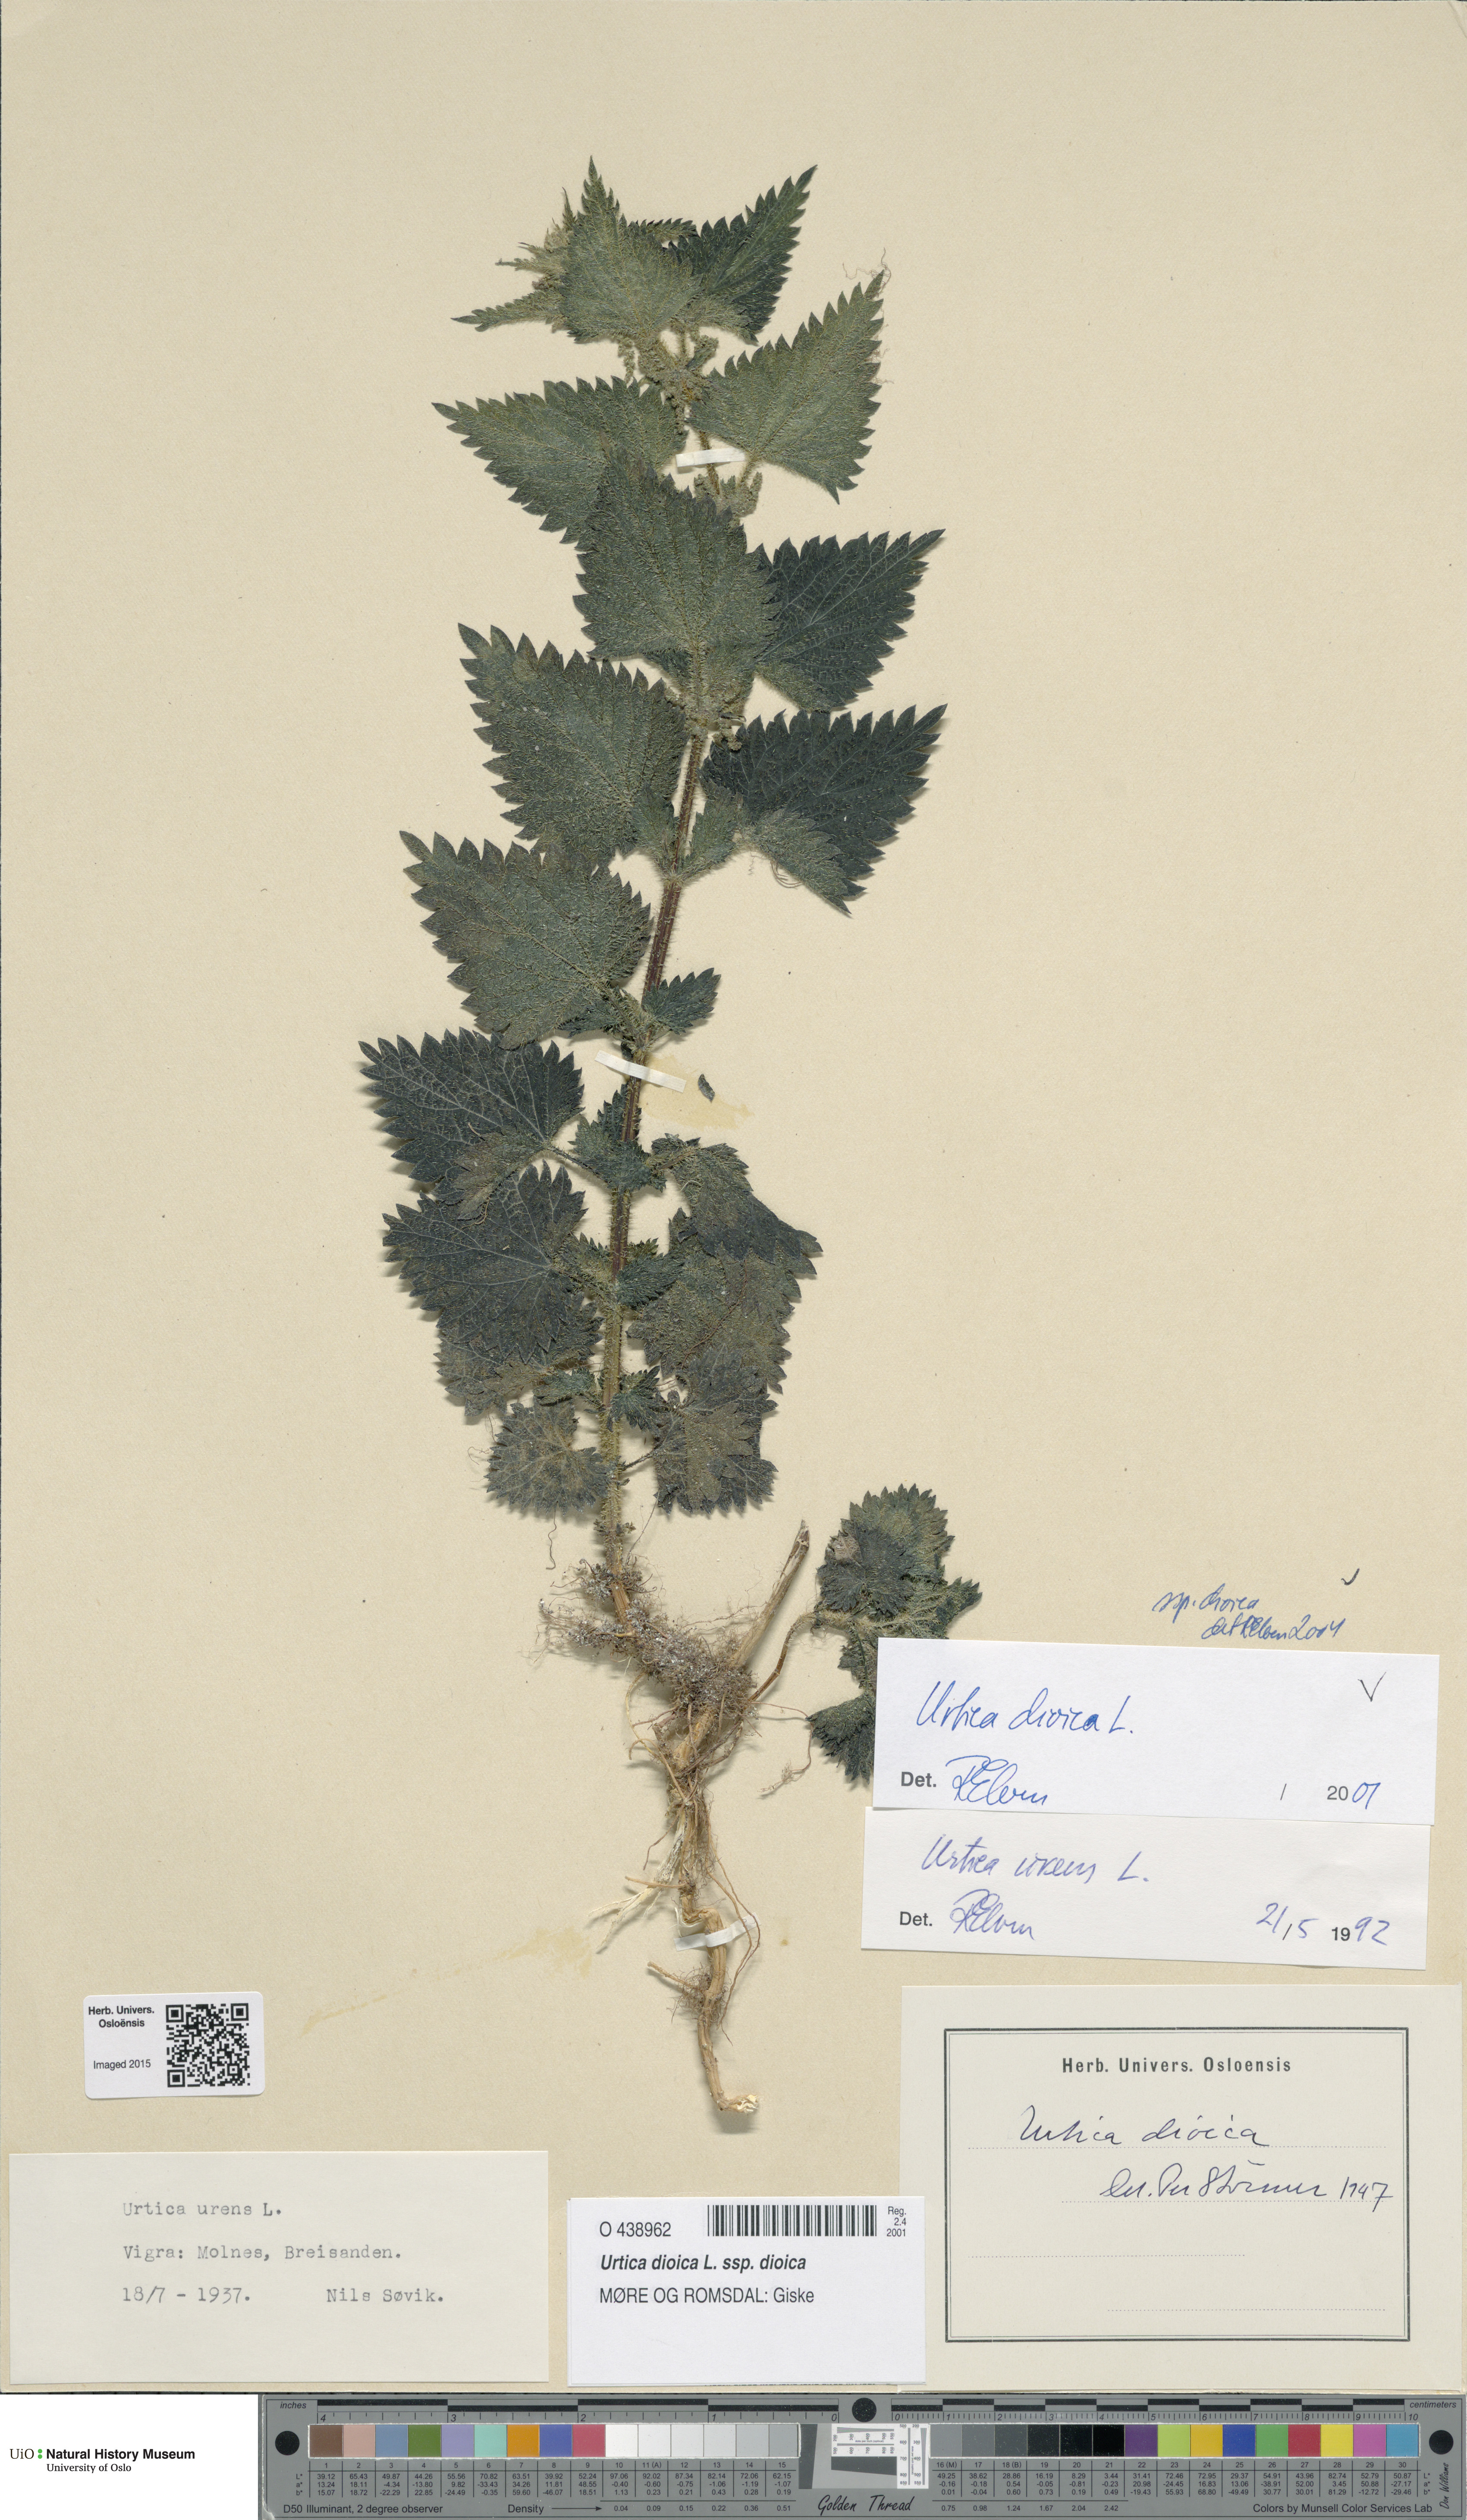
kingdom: Plantae
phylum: Tracheophyta
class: Magnoliopsida
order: Rosales
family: Urticaceae
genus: Urtica
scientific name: Urtica dioica
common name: Common nettle
